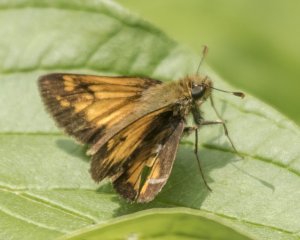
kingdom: Animalia
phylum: Arthropoda
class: Insecta
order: Lepidoptera
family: Hesperiidae
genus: Lon
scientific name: Lon hobomok
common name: Hobomok Skipper
